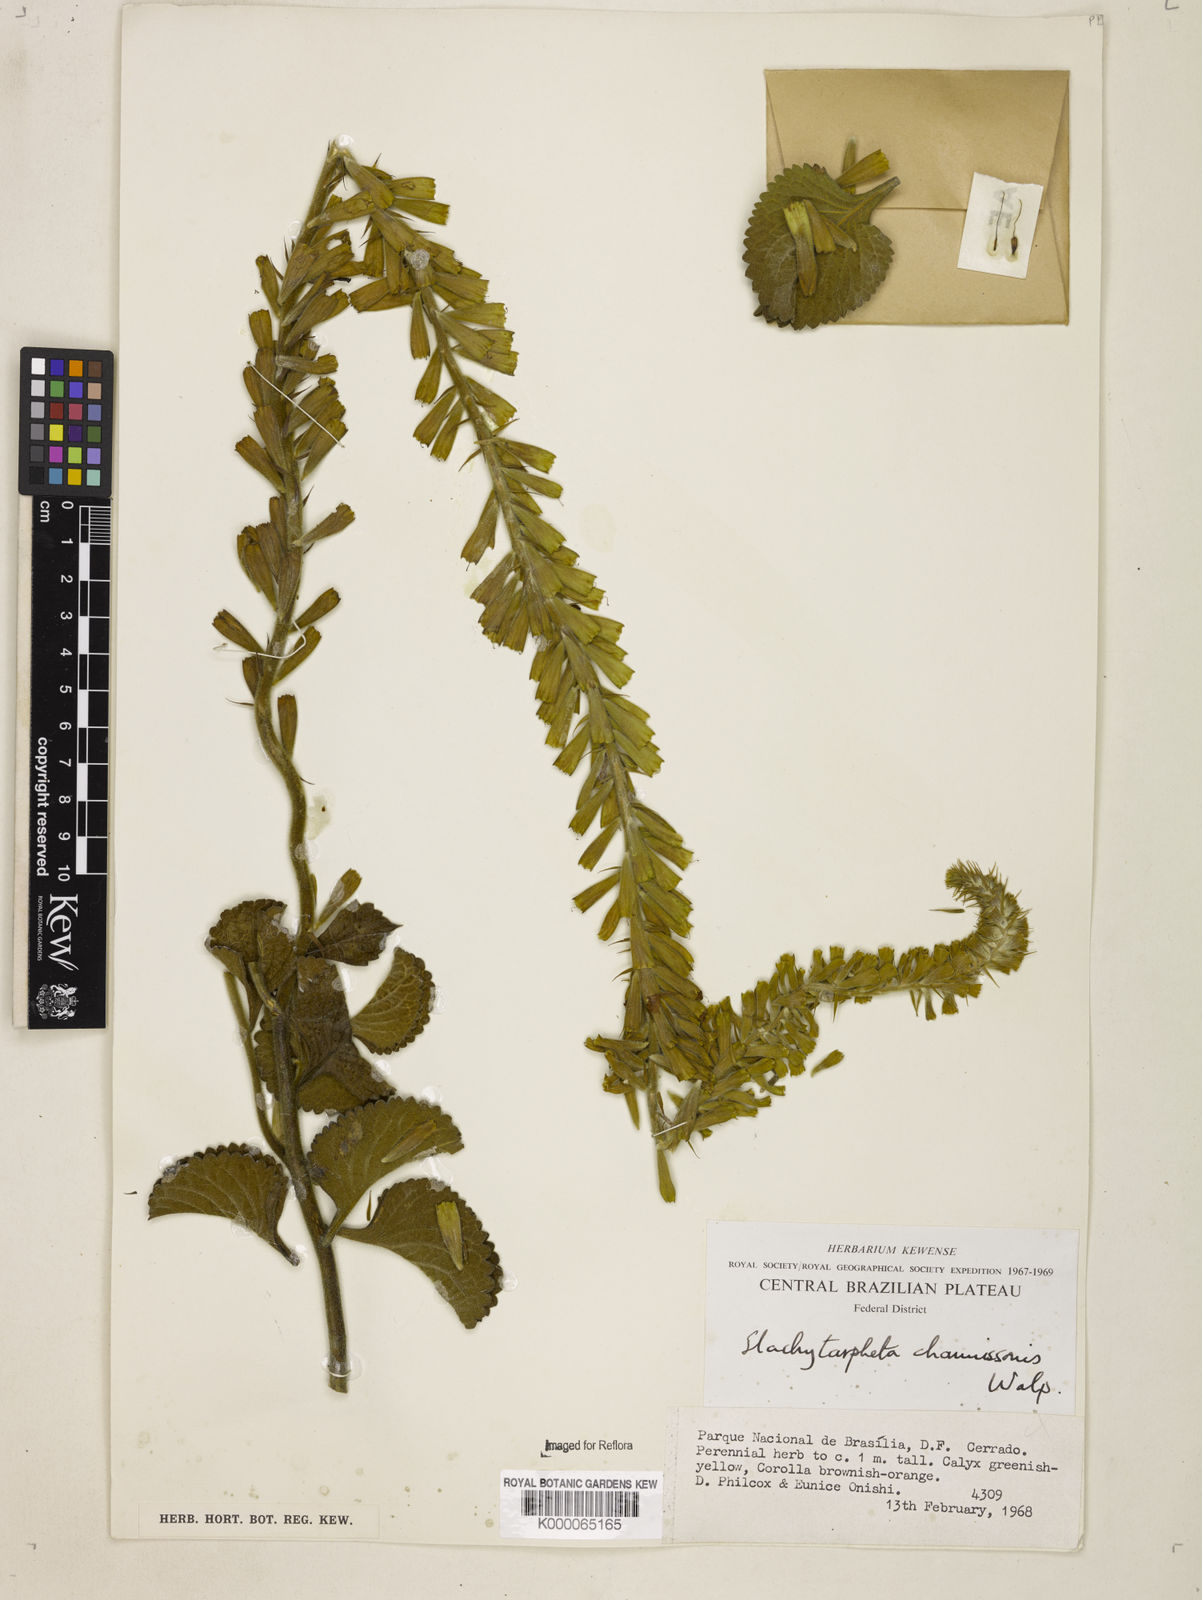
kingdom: Plantae
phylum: Tracheophyta
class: Magnoliopsida
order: Lamiales
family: Verbenaceae
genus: Stachytarpheta
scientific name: Stachytarpheta longispicata
